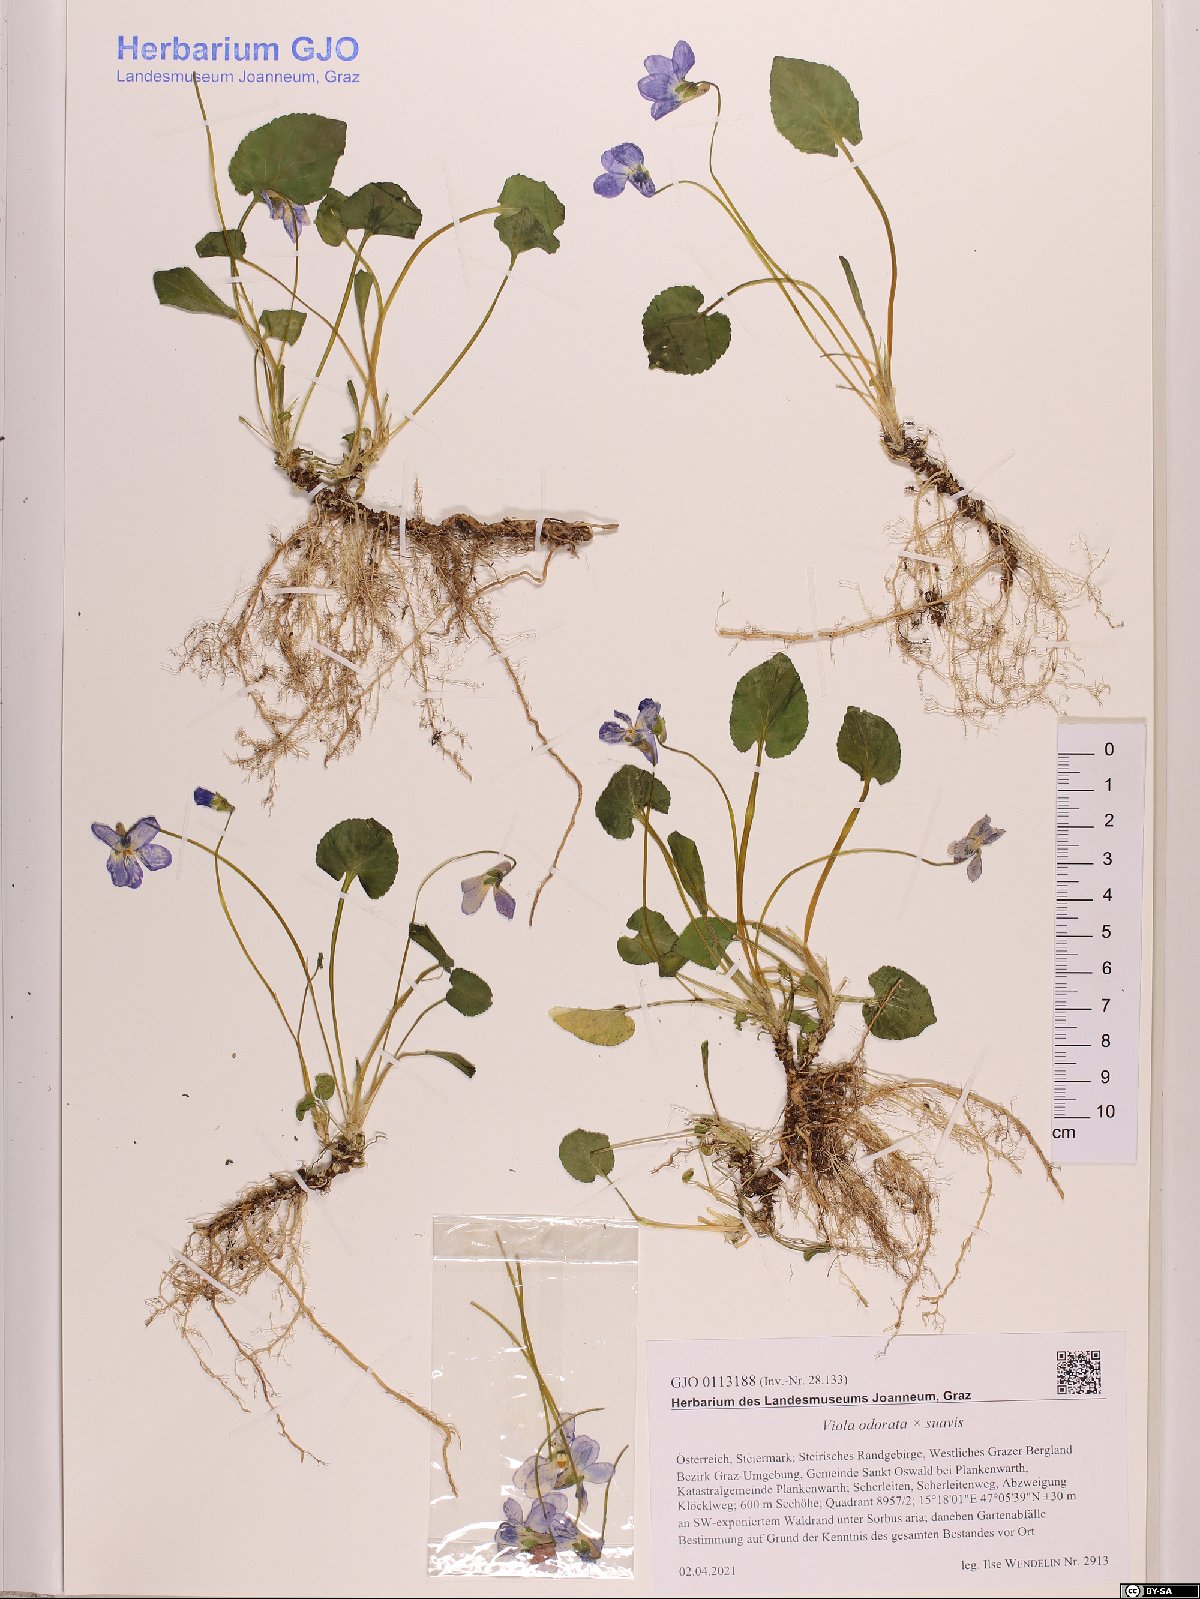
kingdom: Plantae
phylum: Tracheophyta
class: Magnoliopsida
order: Malpighiales
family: Violaceae
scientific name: Violaceae
